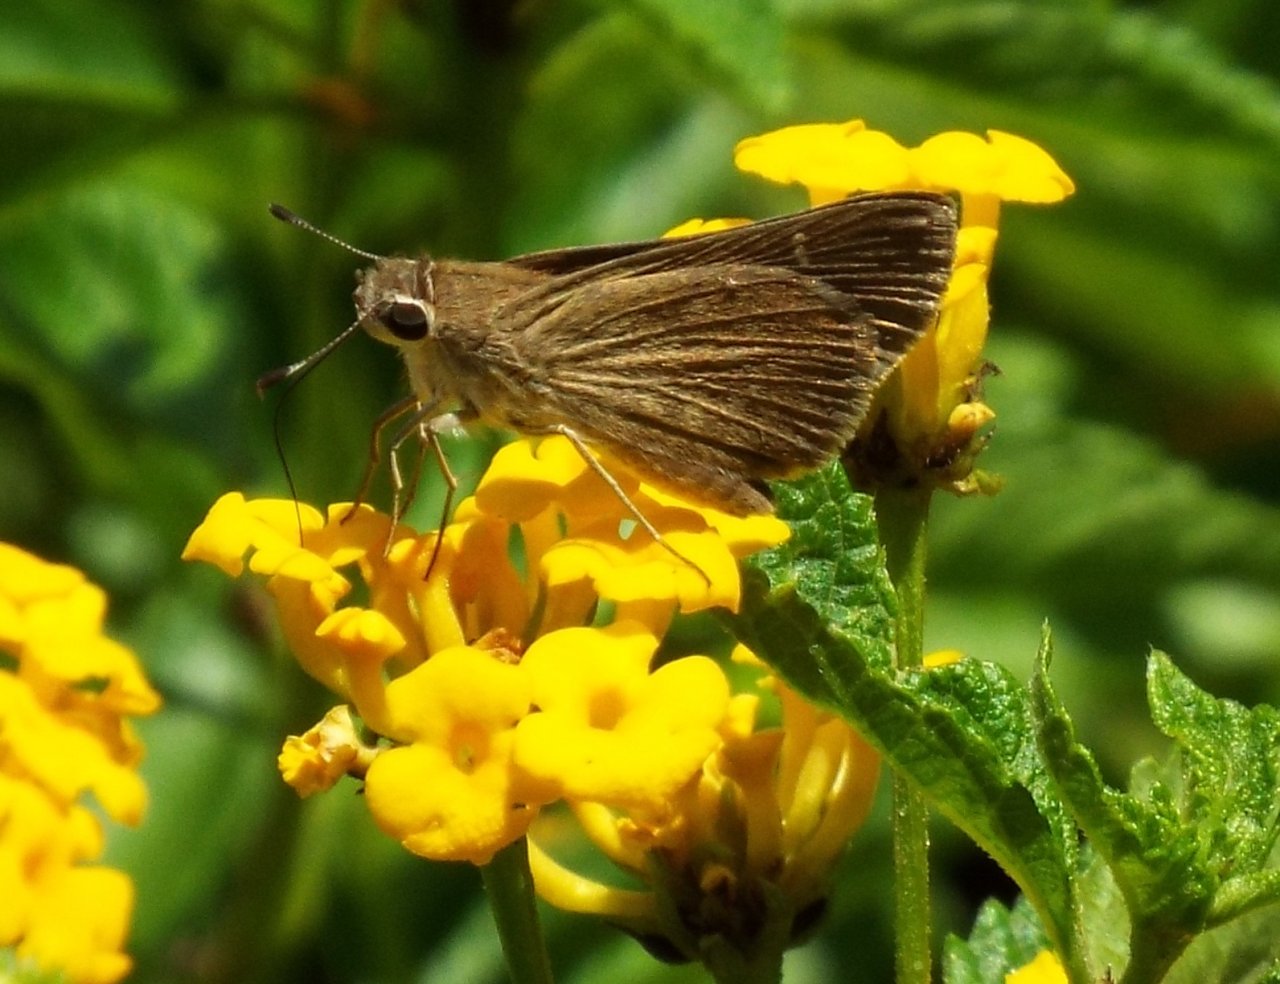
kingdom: Animalia
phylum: Arthropoda
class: Insecta
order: Lepidoptera
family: Hesperiidae
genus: Lerodea
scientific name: Lerodea eufala
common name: Eufala Skipper
